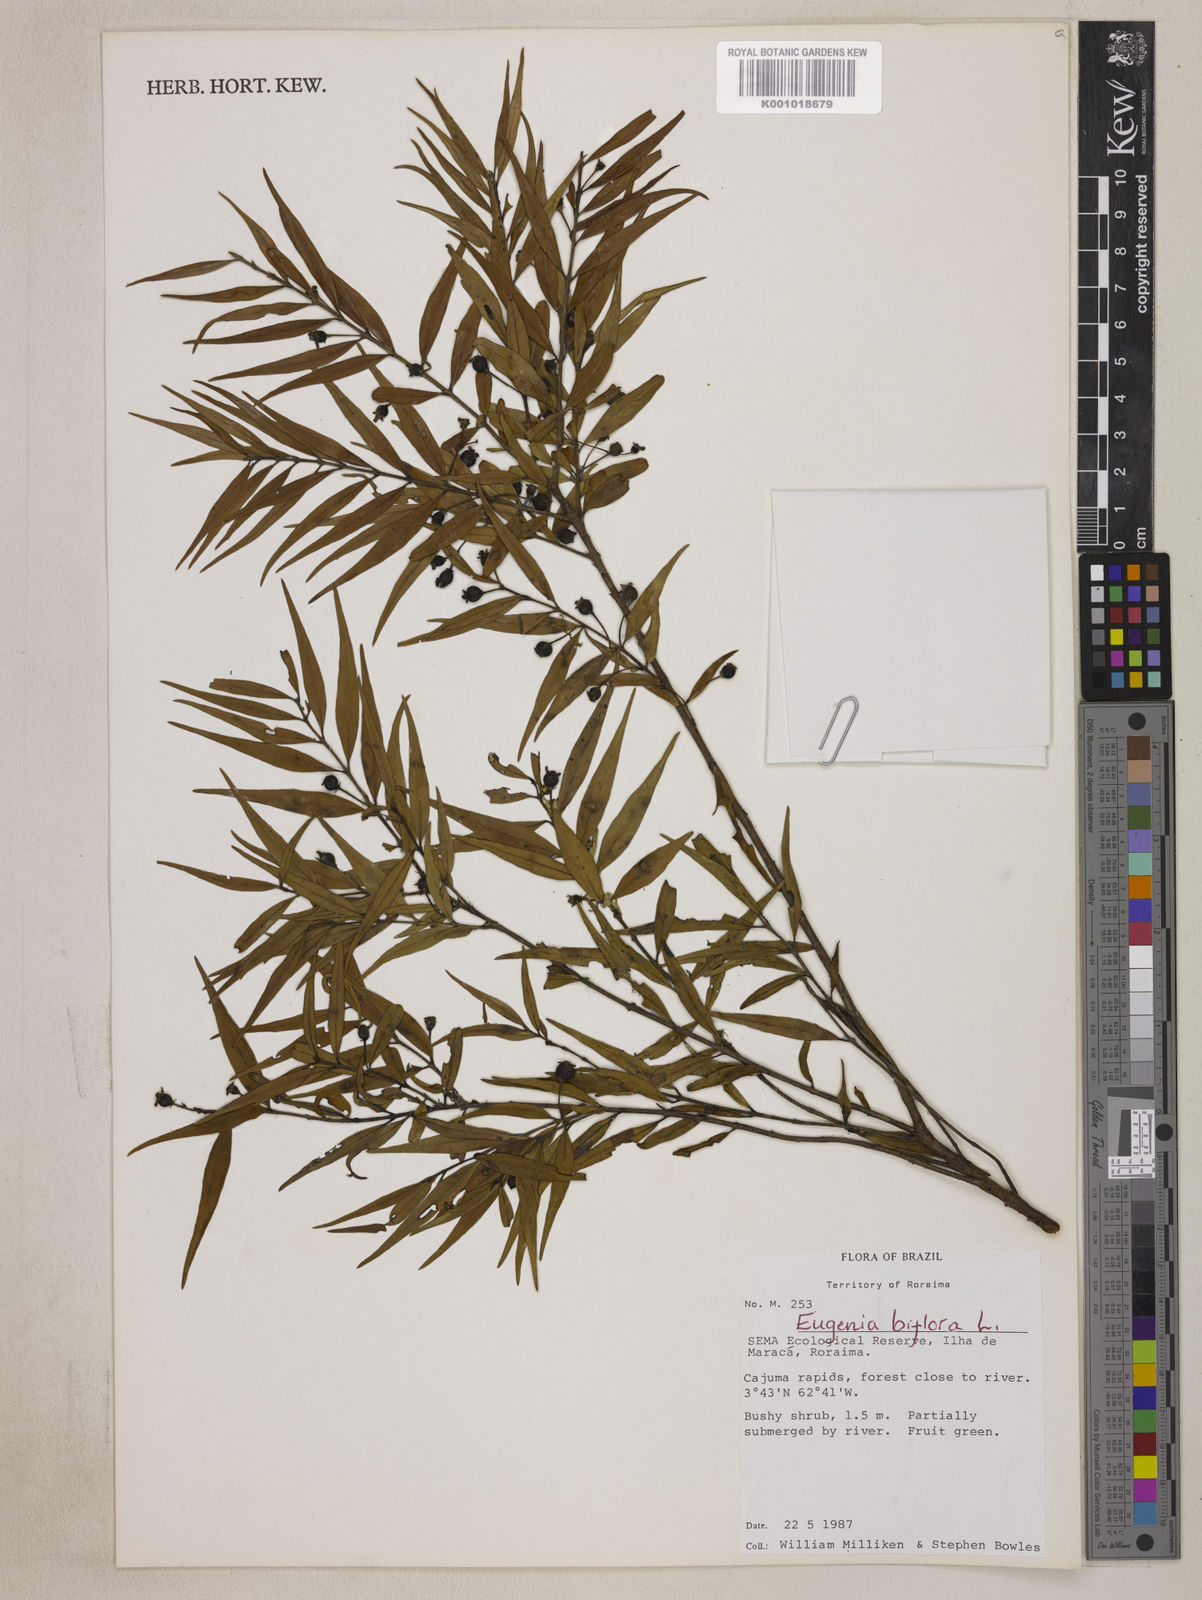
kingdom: Plantae
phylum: Tracheophyta
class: Magnoliopsida
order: Myrtales
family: Myrtaceae
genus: Eugenia
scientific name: Eugenia biflora
